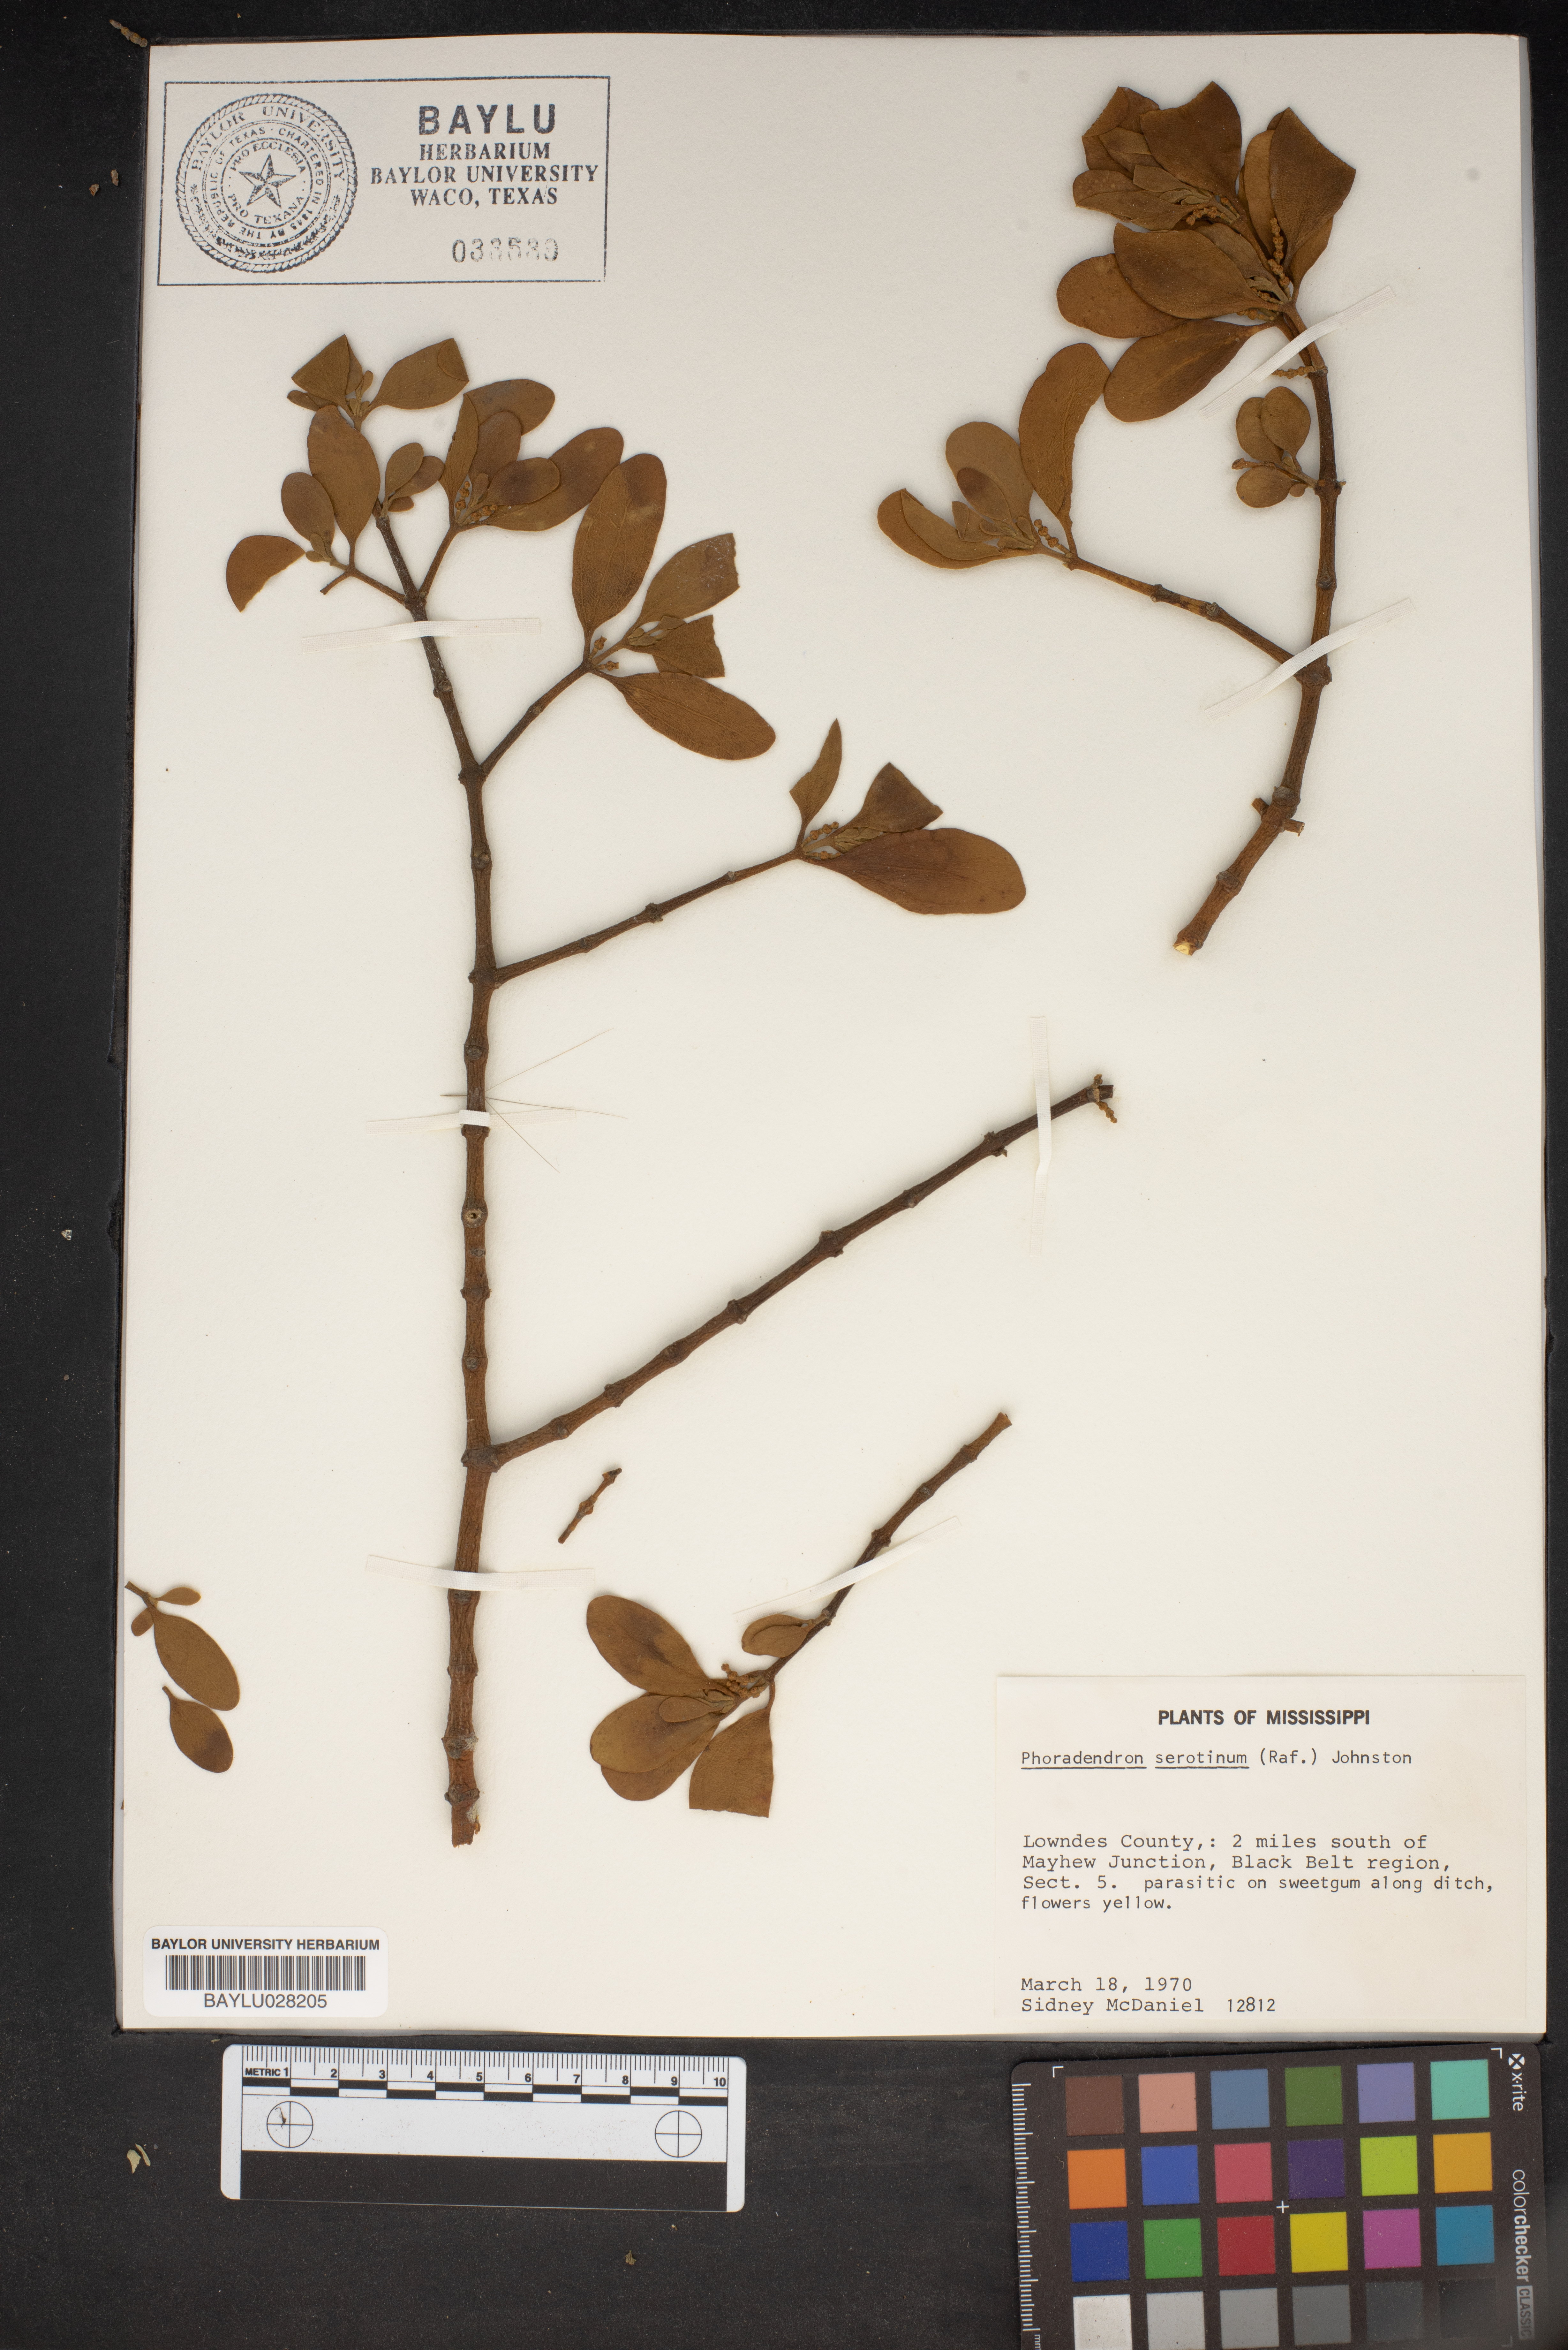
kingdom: Plantae
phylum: Tracheophyta
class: Magnoliopsida
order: Santalales
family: Viscaceae
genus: Phoradendron
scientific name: Phoradendron leucarpum
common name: Pacific mistletoe
